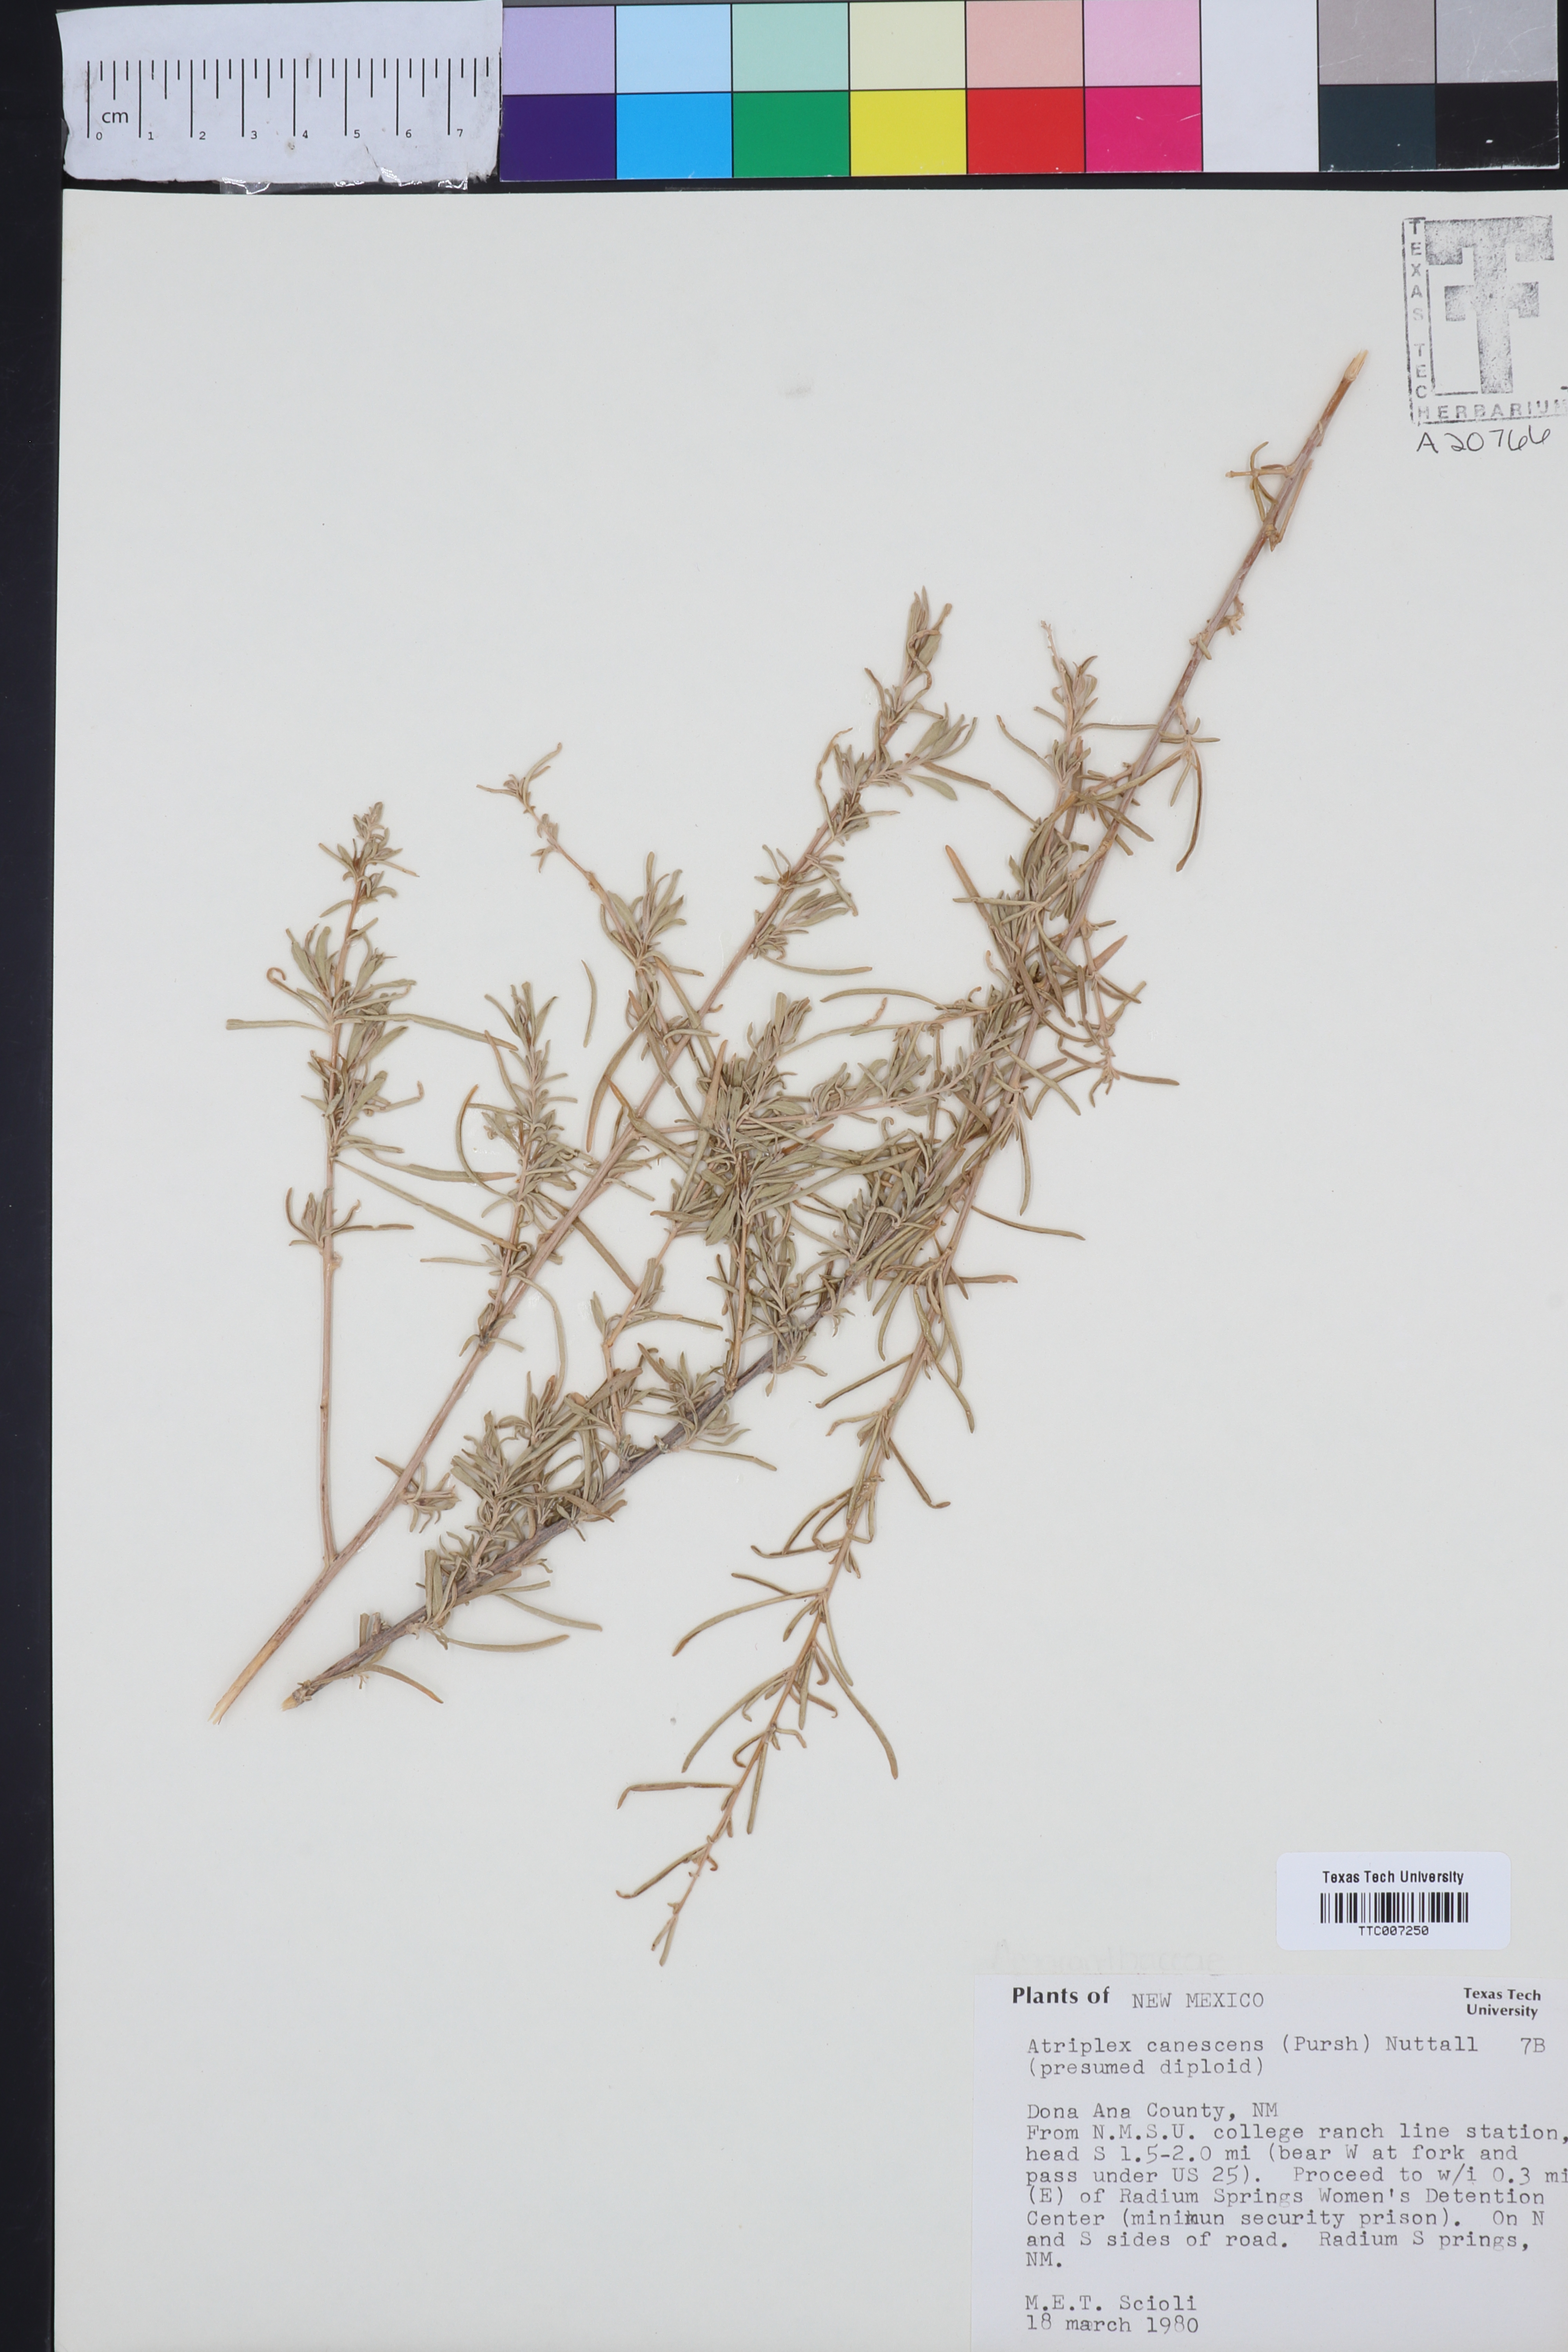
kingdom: Plantae
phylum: Tracheophyta
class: Magnoliopsida
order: Caryophyllales
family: Amaranthaceae
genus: Atriplex
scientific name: Atriplex canescens
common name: Four-wing saltbush
